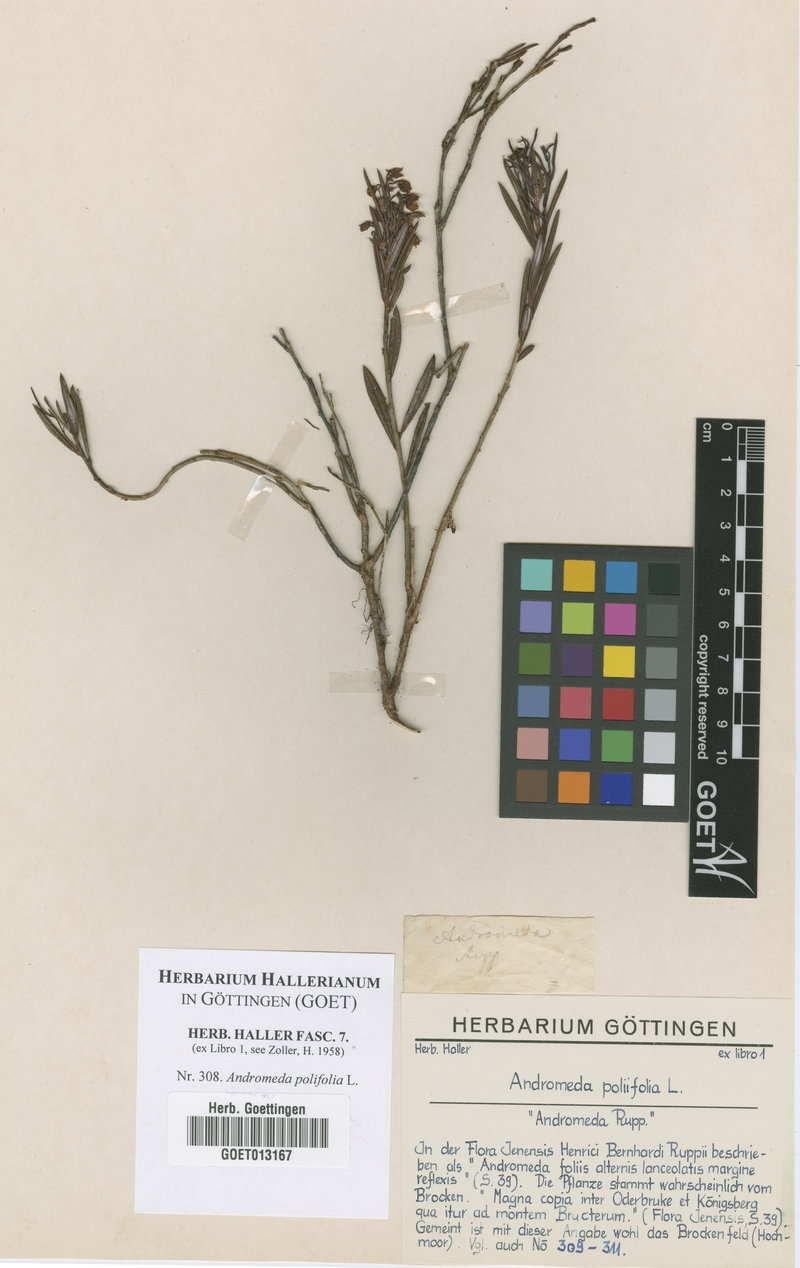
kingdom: Plantae
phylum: Tracheophyta
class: Magnoliopsida
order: Ericales
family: Ericaceae
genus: Andromeda
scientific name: Andromeda polifolia
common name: Bog-rosemary
